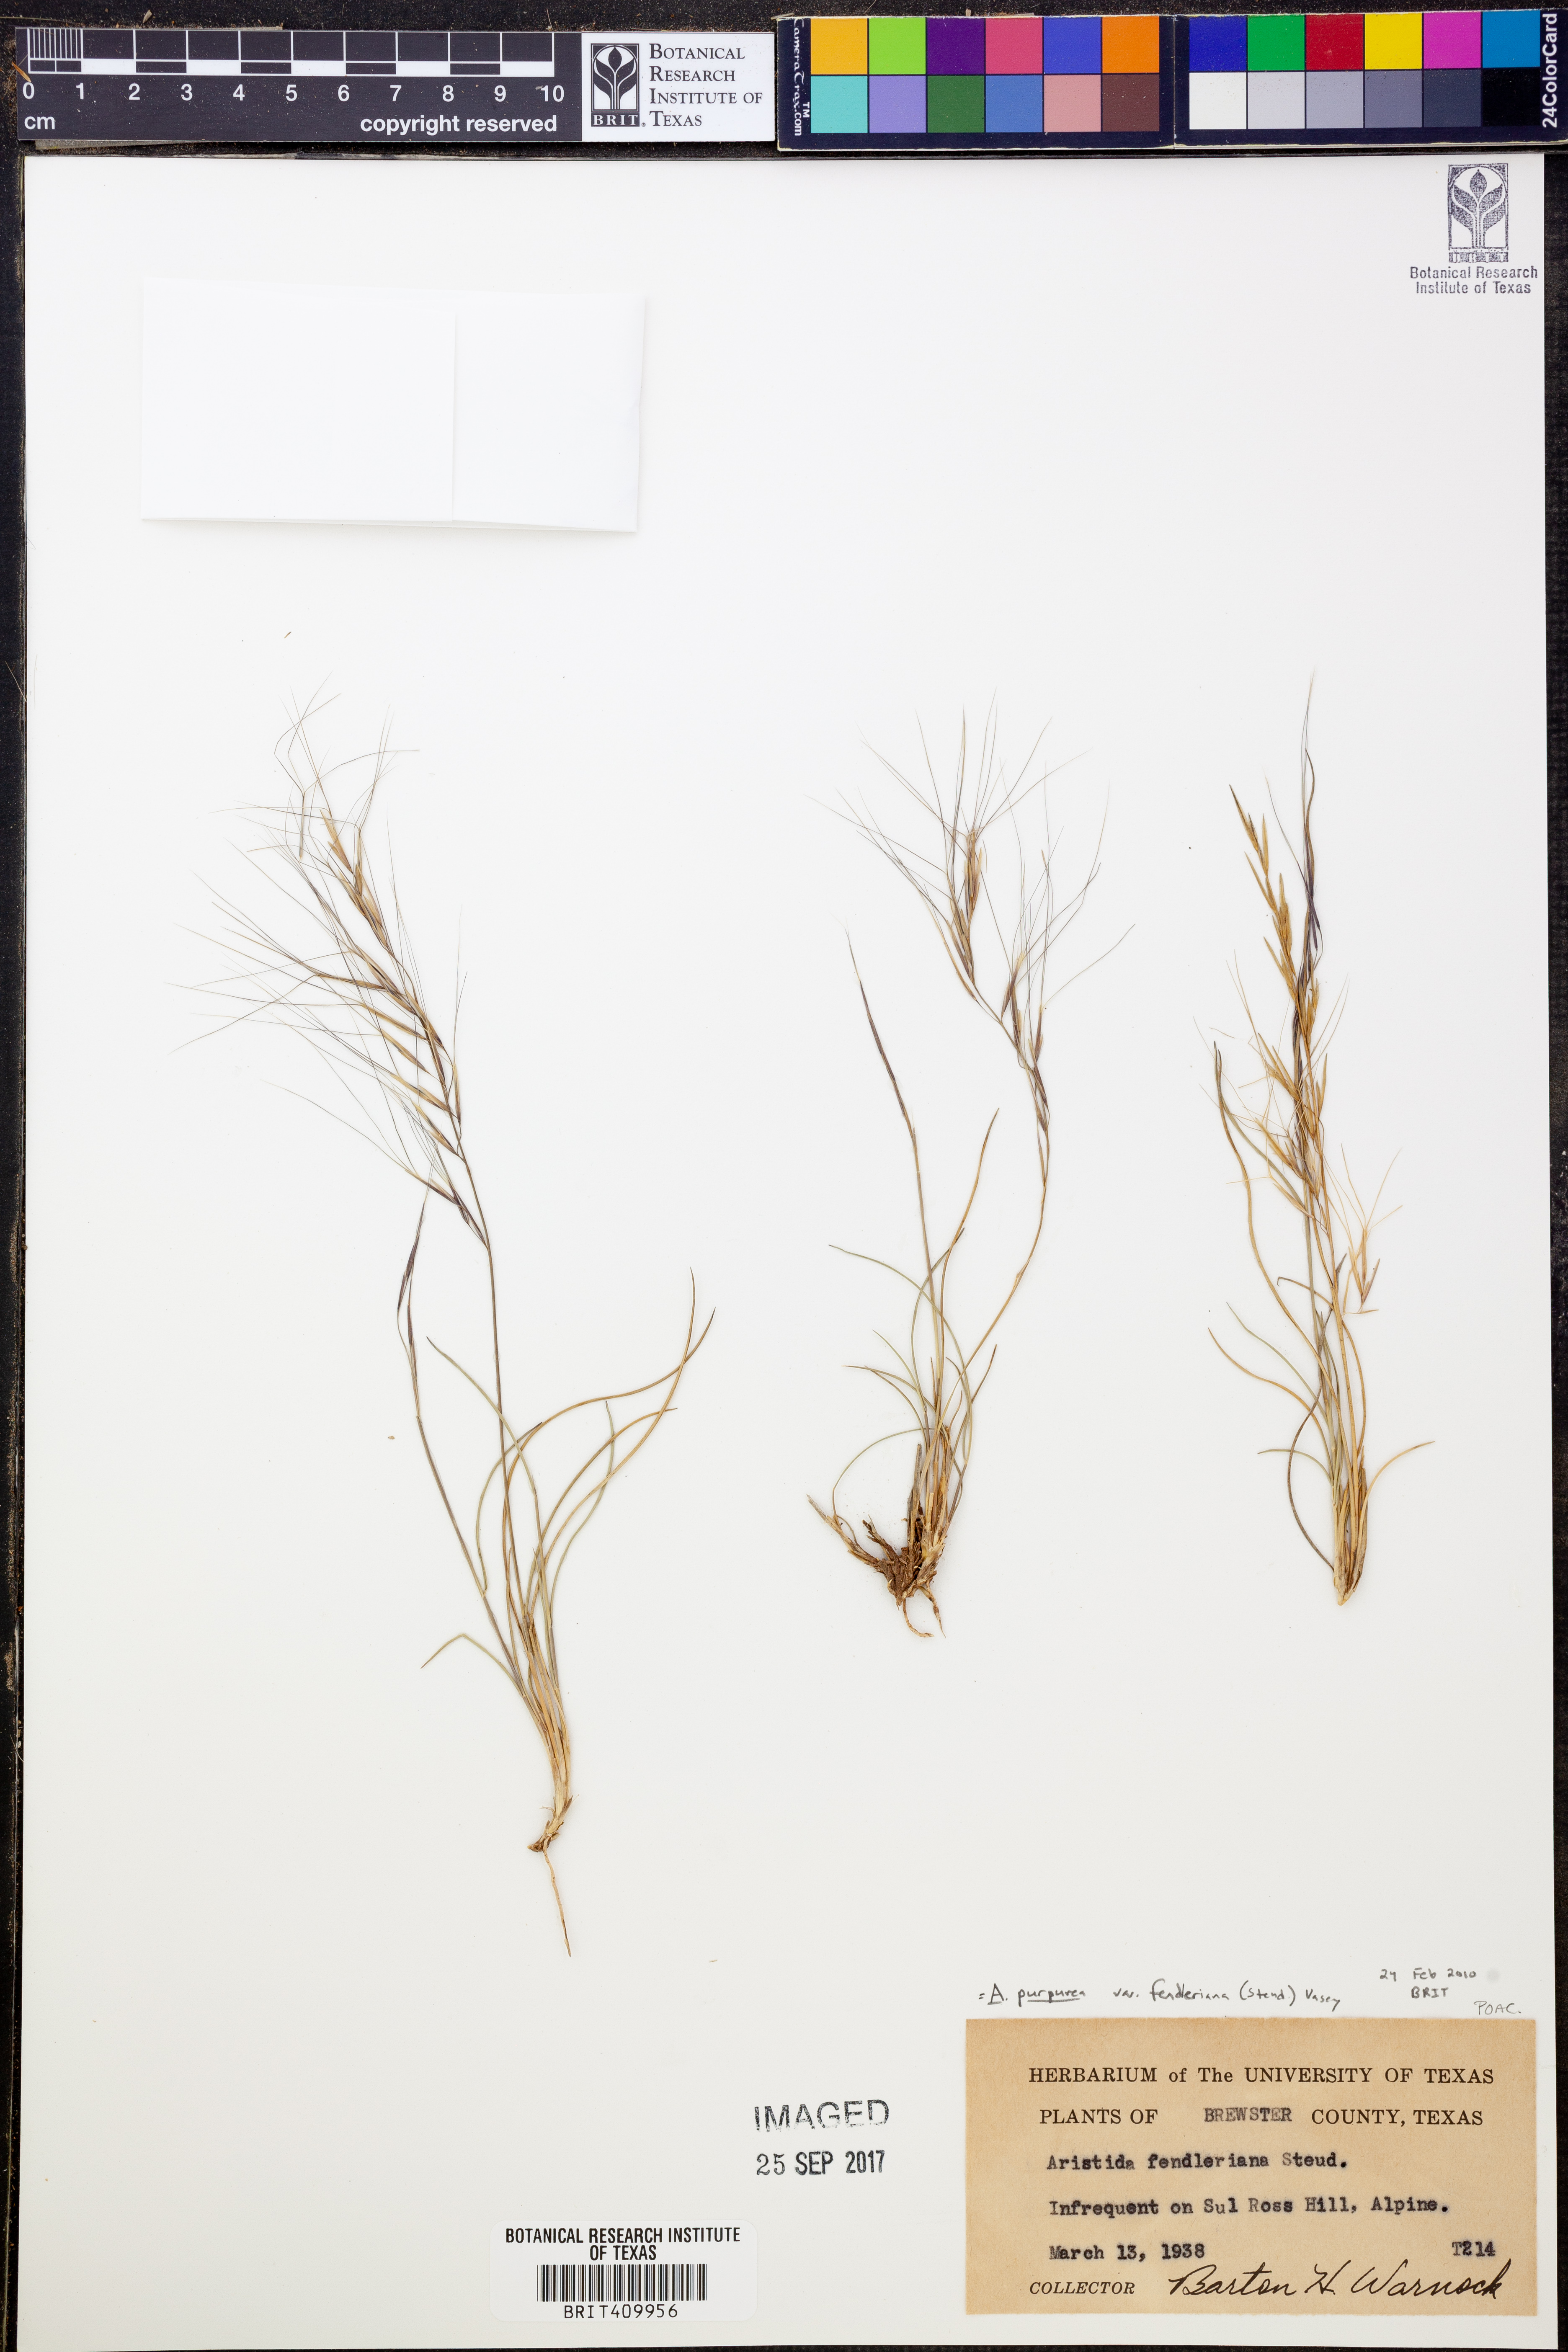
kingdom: Plantae
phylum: Tracheophyta
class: Liliopsida
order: Poales
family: Poaceae
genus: Aristida
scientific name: Aristida fendleriana
